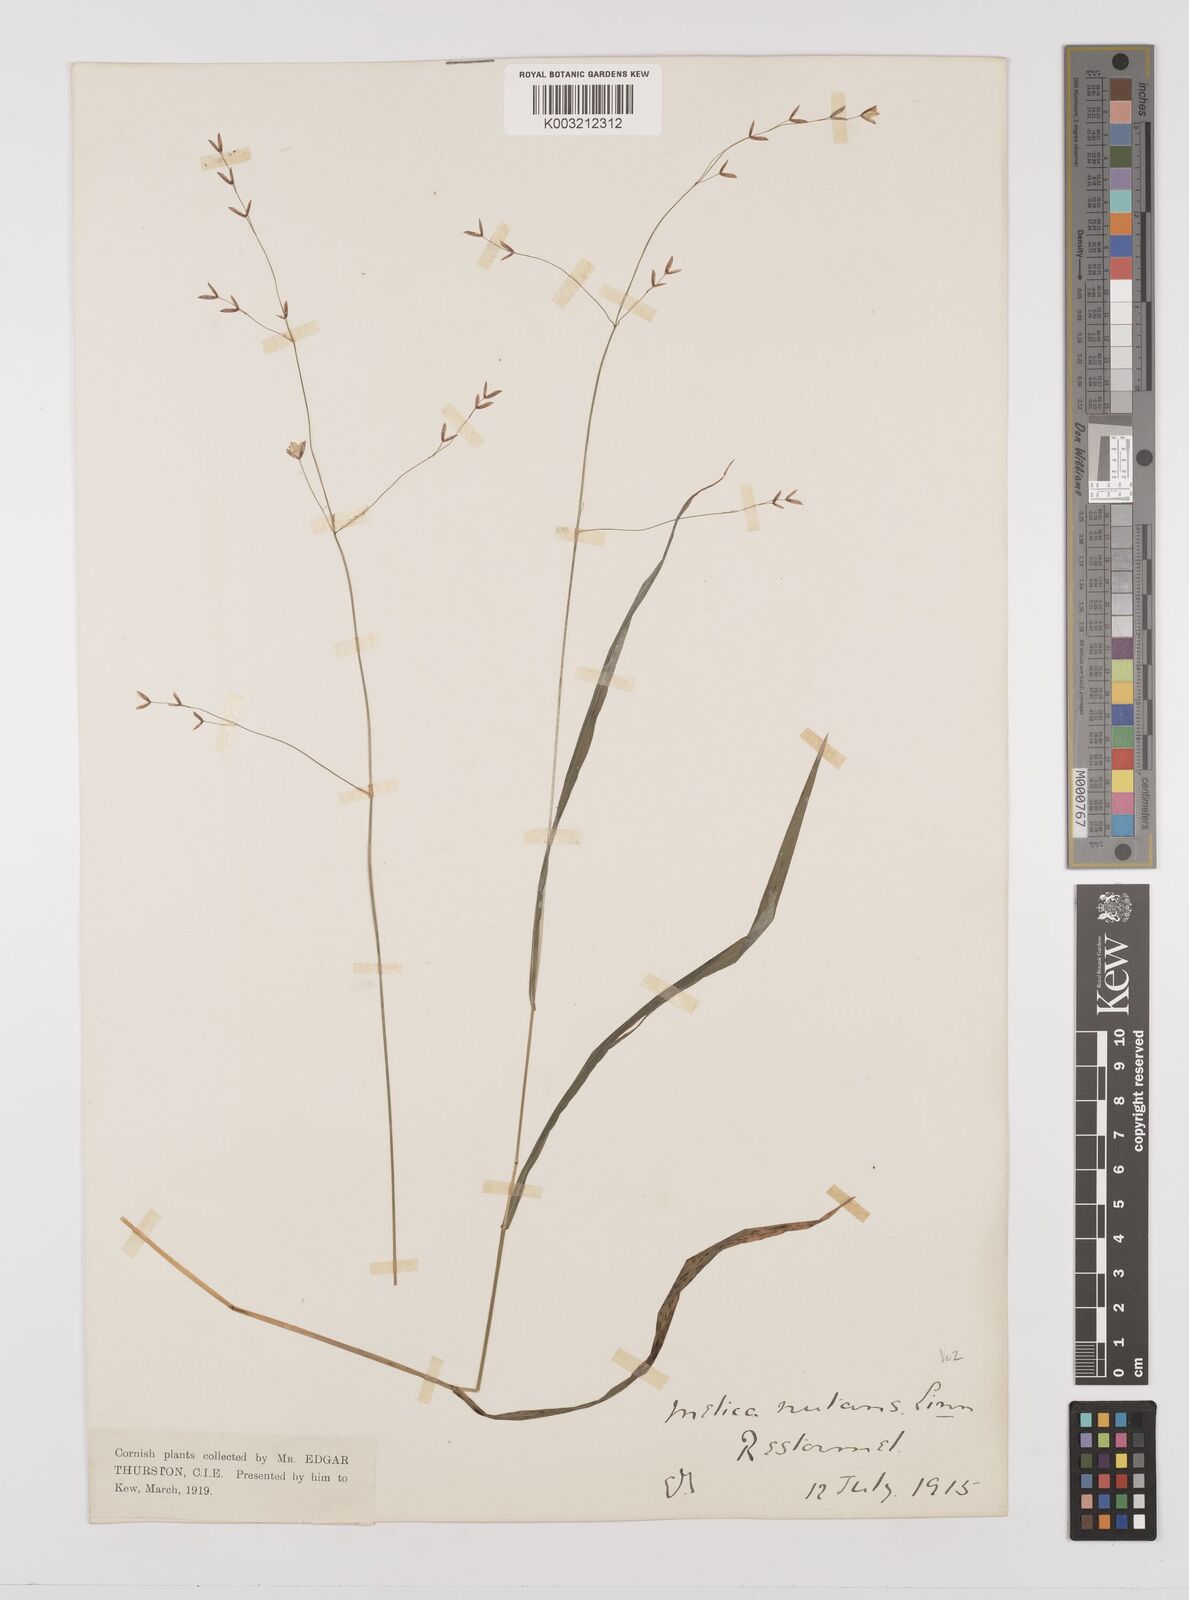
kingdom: Plantae
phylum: Tracheophyta
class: Liliopsida
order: Poales
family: Poaceae
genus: Melica
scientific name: Melica uniflora
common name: Wood melick
